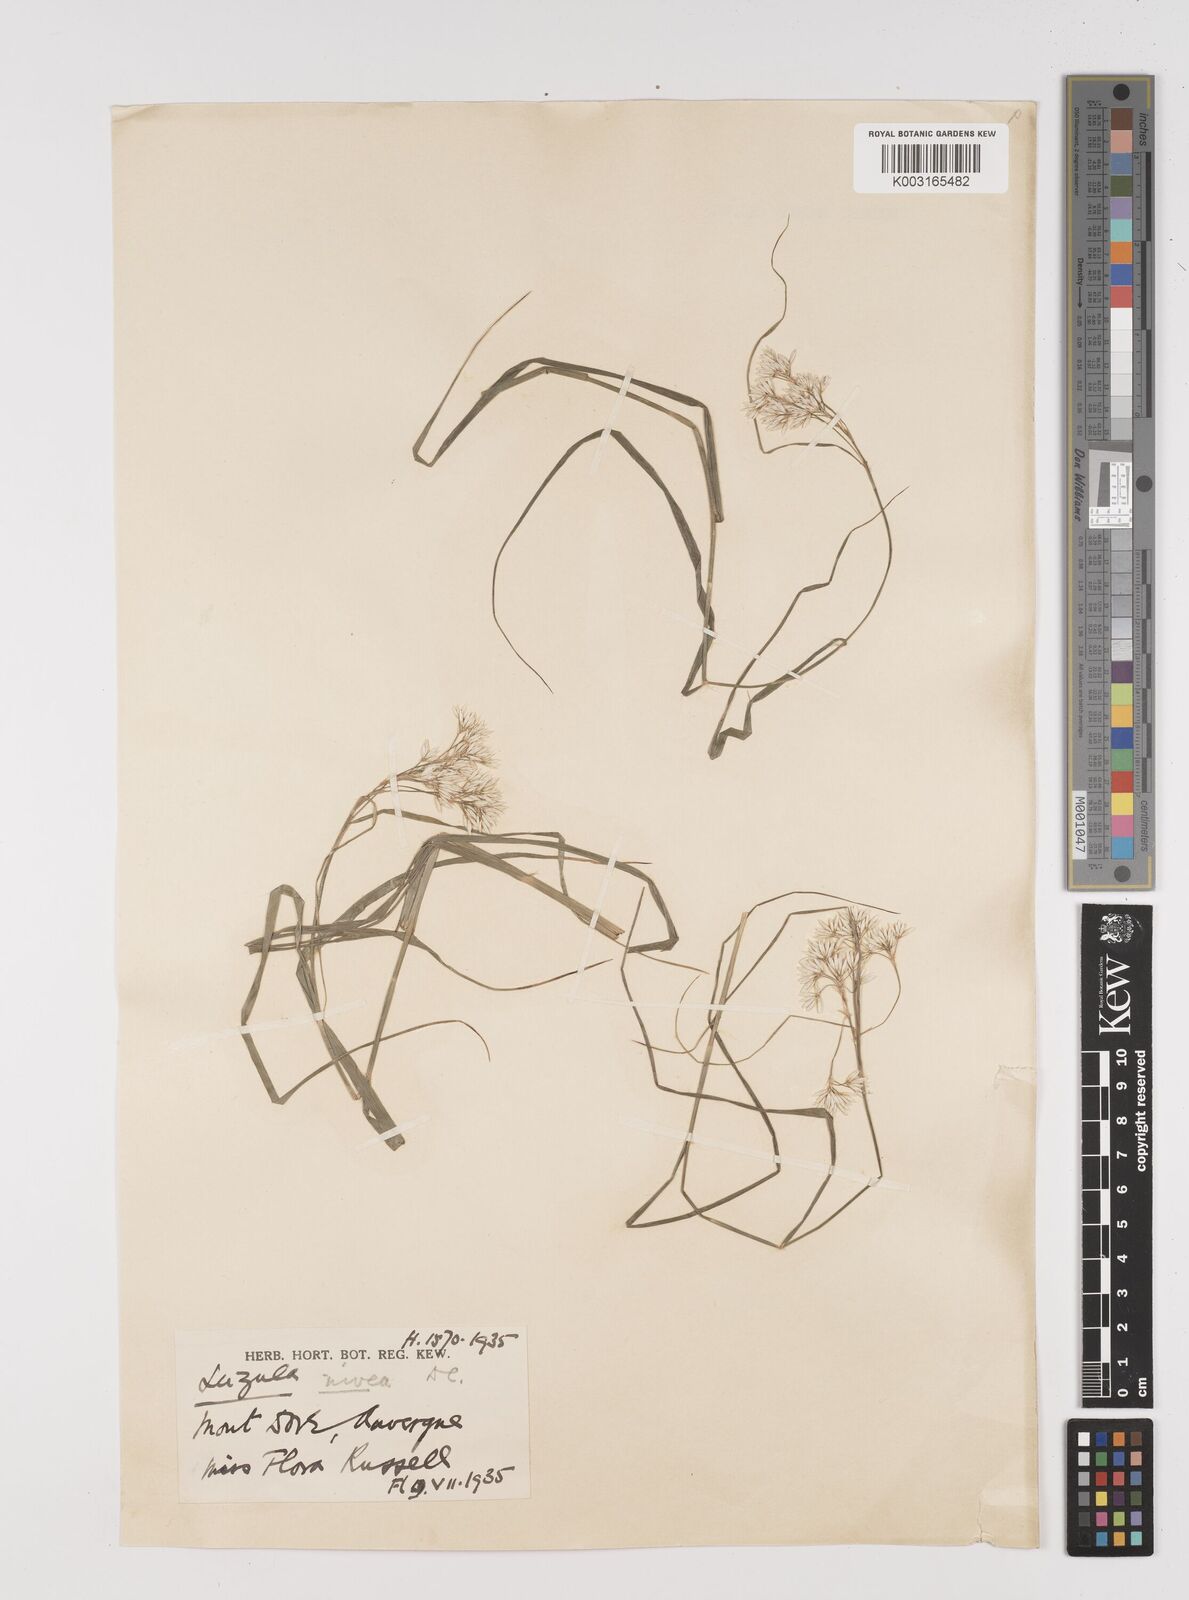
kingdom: Plantae
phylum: Tracheophyta
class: Liliopsida
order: Poales
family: Juncaceae
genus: Luzula
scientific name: Luzula nivea
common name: Snow-white wood-rush
